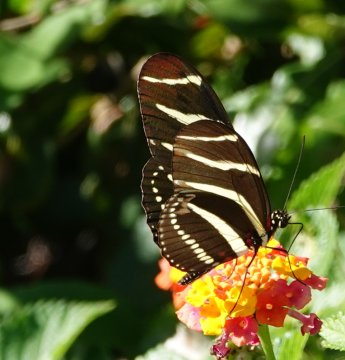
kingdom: Animalia
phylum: Arthropoda
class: Insecta
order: Lepidoptera
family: Nymphalidae
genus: Heliconius
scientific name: Heliconius charithonia
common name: Zebra Longwing
